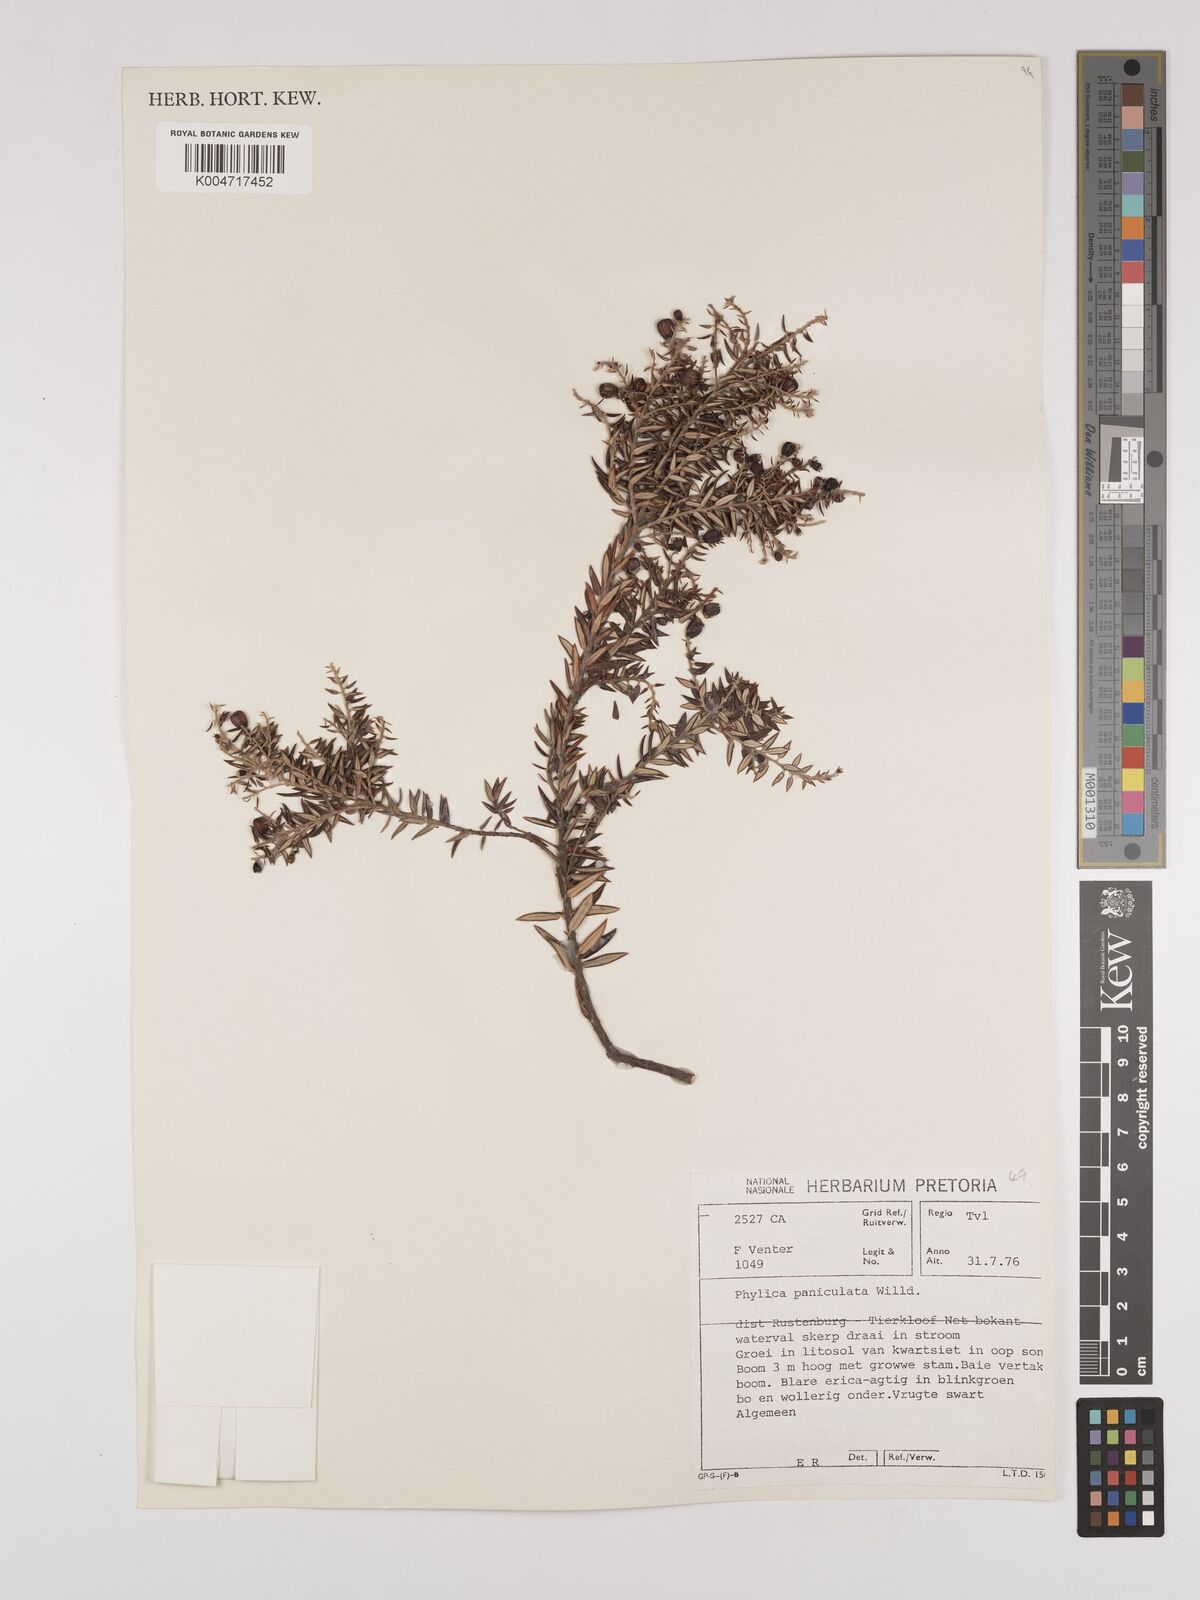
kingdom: Plantae
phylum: Tracheophyta
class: Magnoliopsida
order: Rosales
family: Rhamnaceae
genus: Phylica
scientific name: Phylica paniculata
